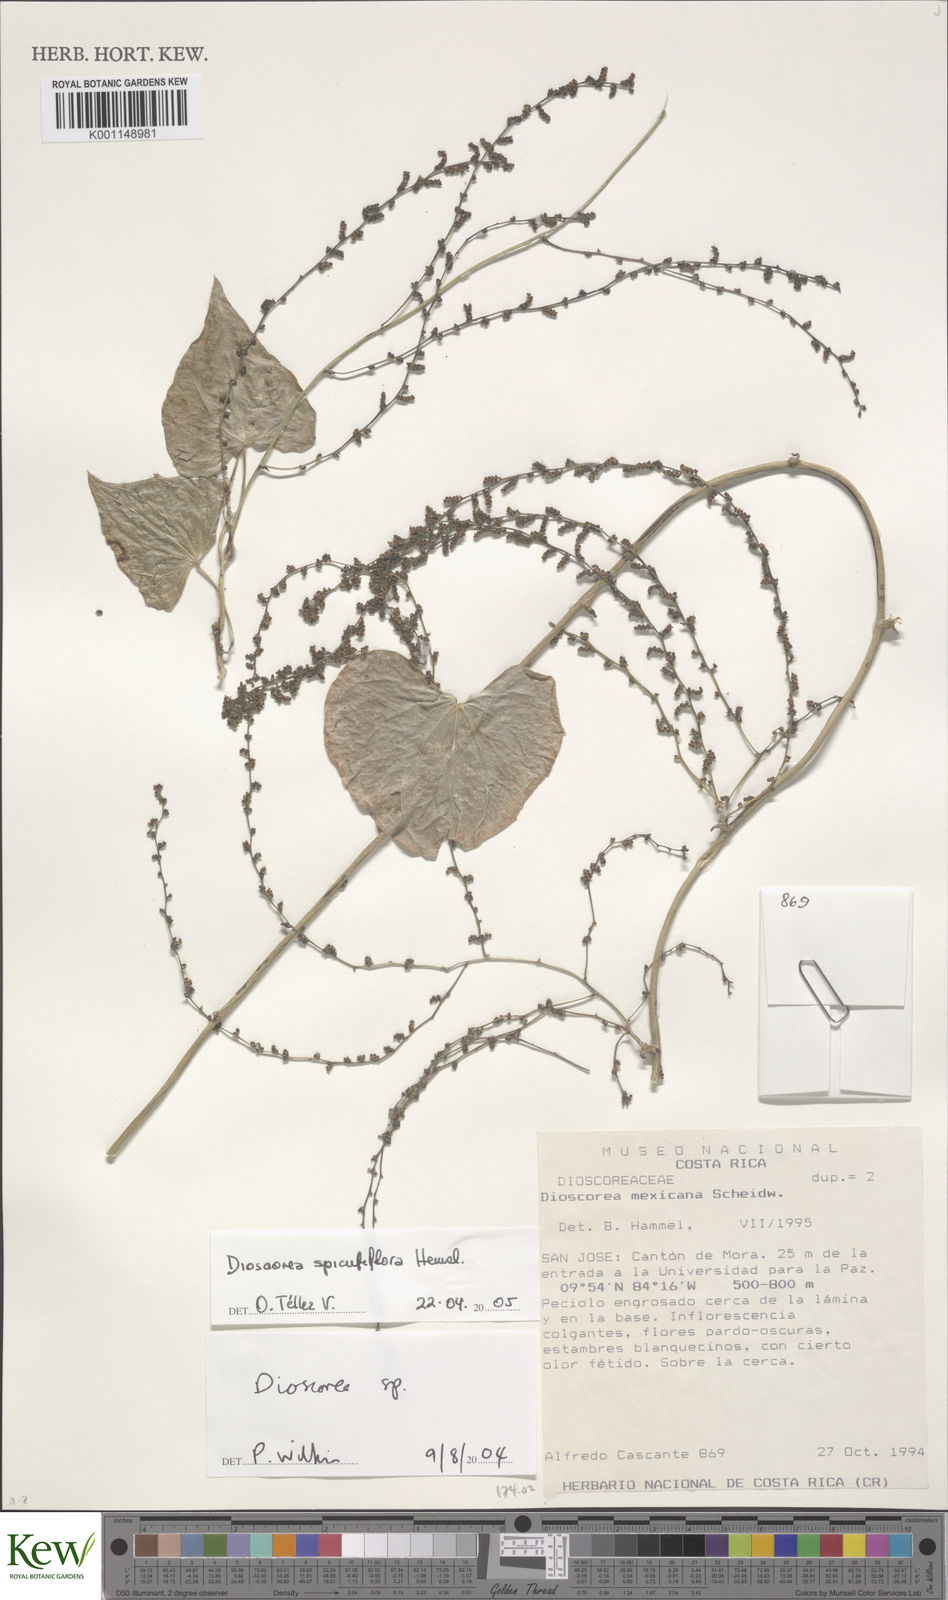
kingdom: Plantae
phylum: Tracheophyta
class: Liliopsida
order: Dioscoreales
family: Dioscoreaceae
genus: Dioscorea
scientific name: Dioscorea spiculiflora
